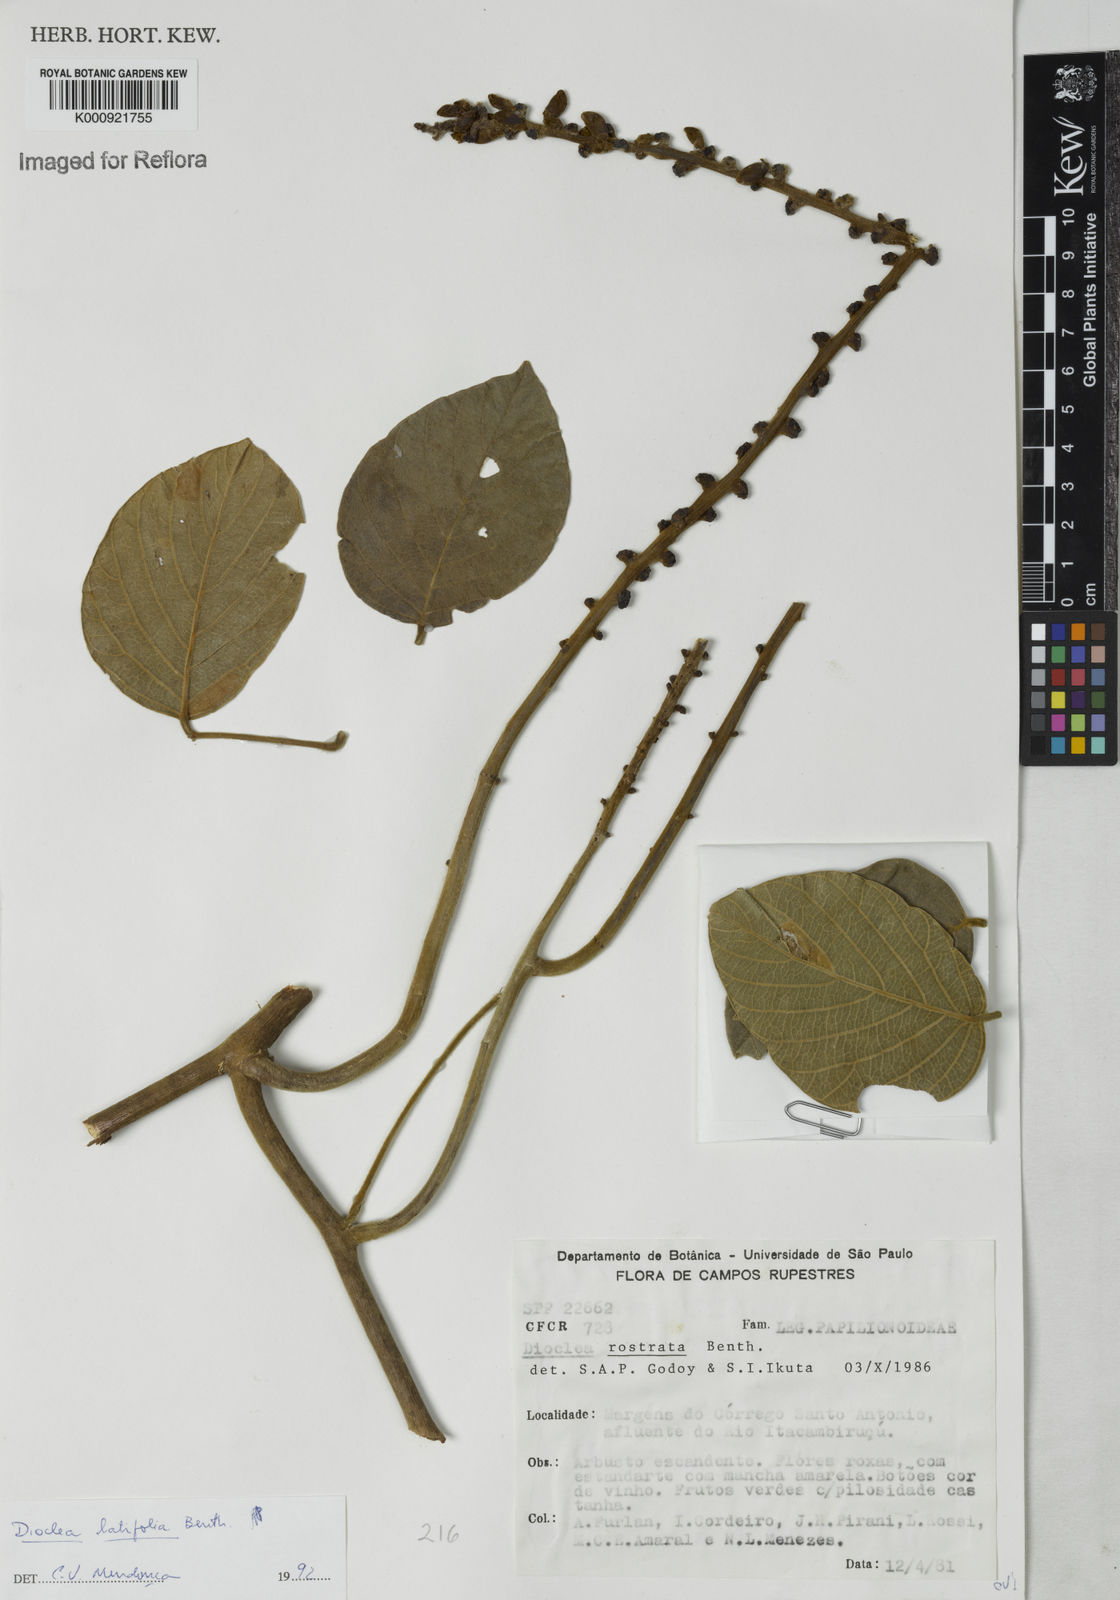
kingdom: Plantae
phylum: Tracheophyta
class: Magnoliopsida
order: Fabales
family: Fabaceae
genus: Macropsychanthus
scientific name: Macropsychanthus latifolius
